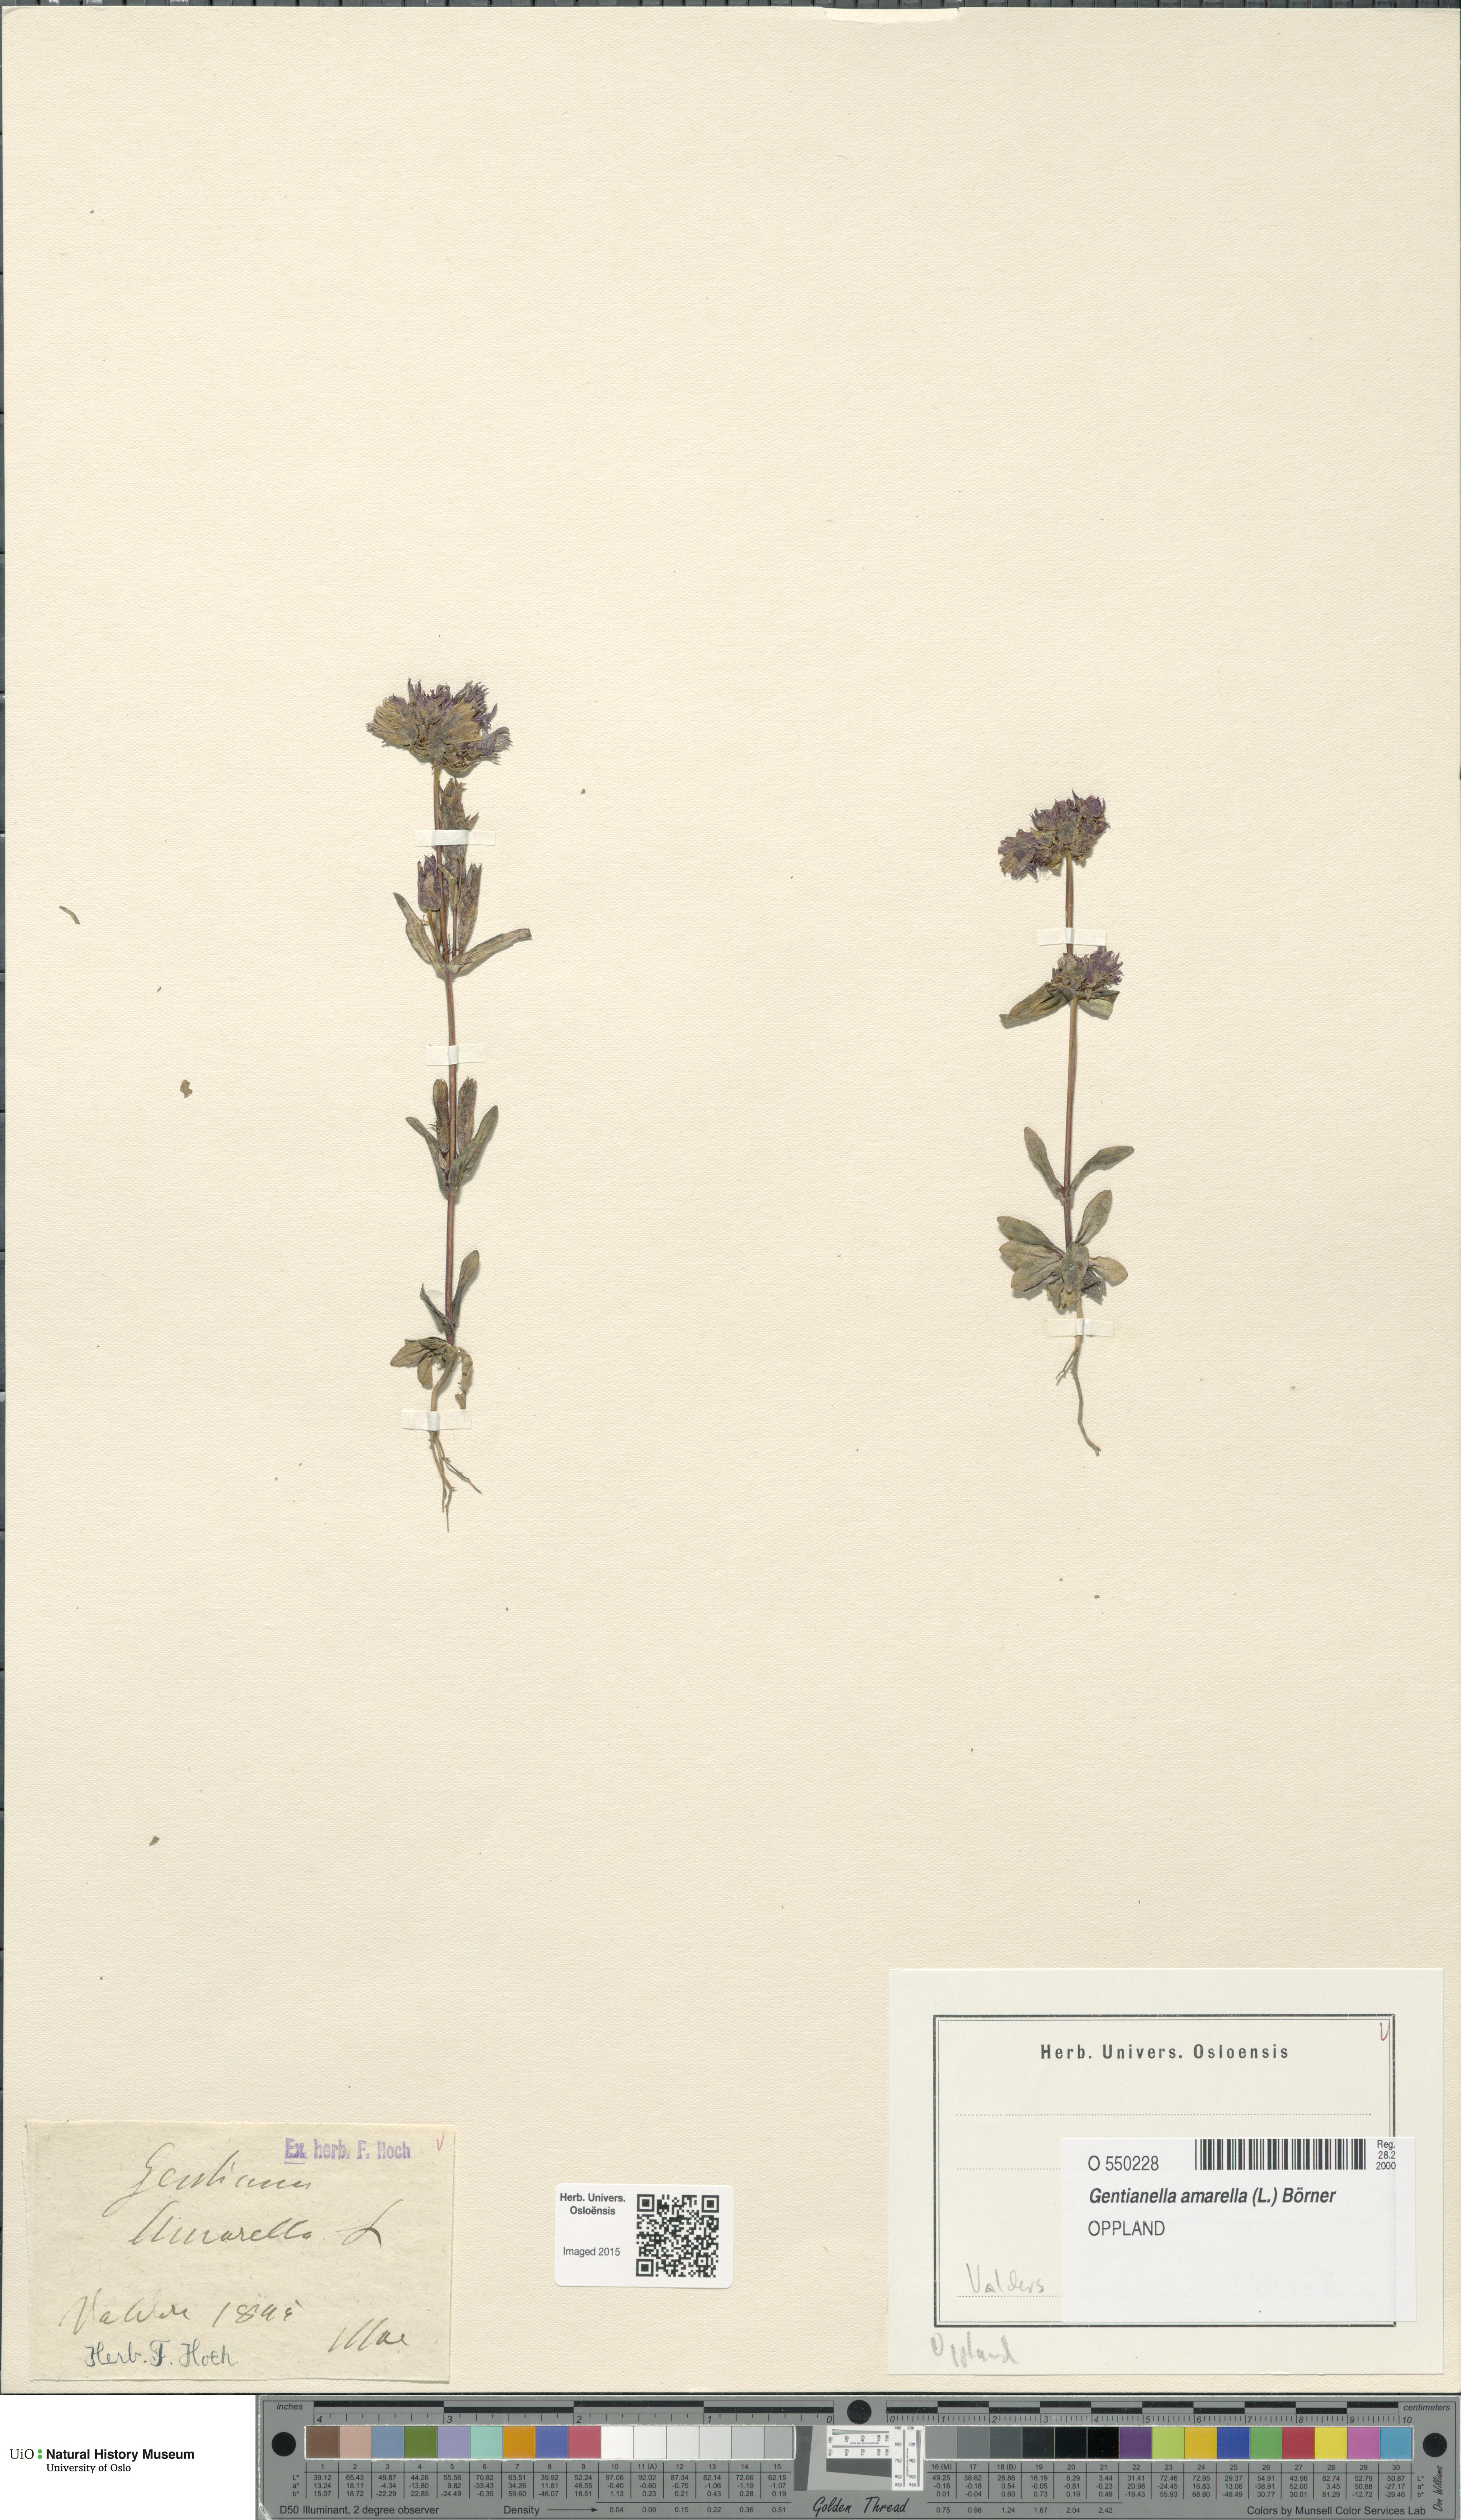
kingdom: Plantae
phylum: Tracheophyta
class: Magnoliopsida
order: Gentianales
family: Gentianaceae
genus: Gentianella
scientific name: Gentianella amarella
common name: Autumn gentian
